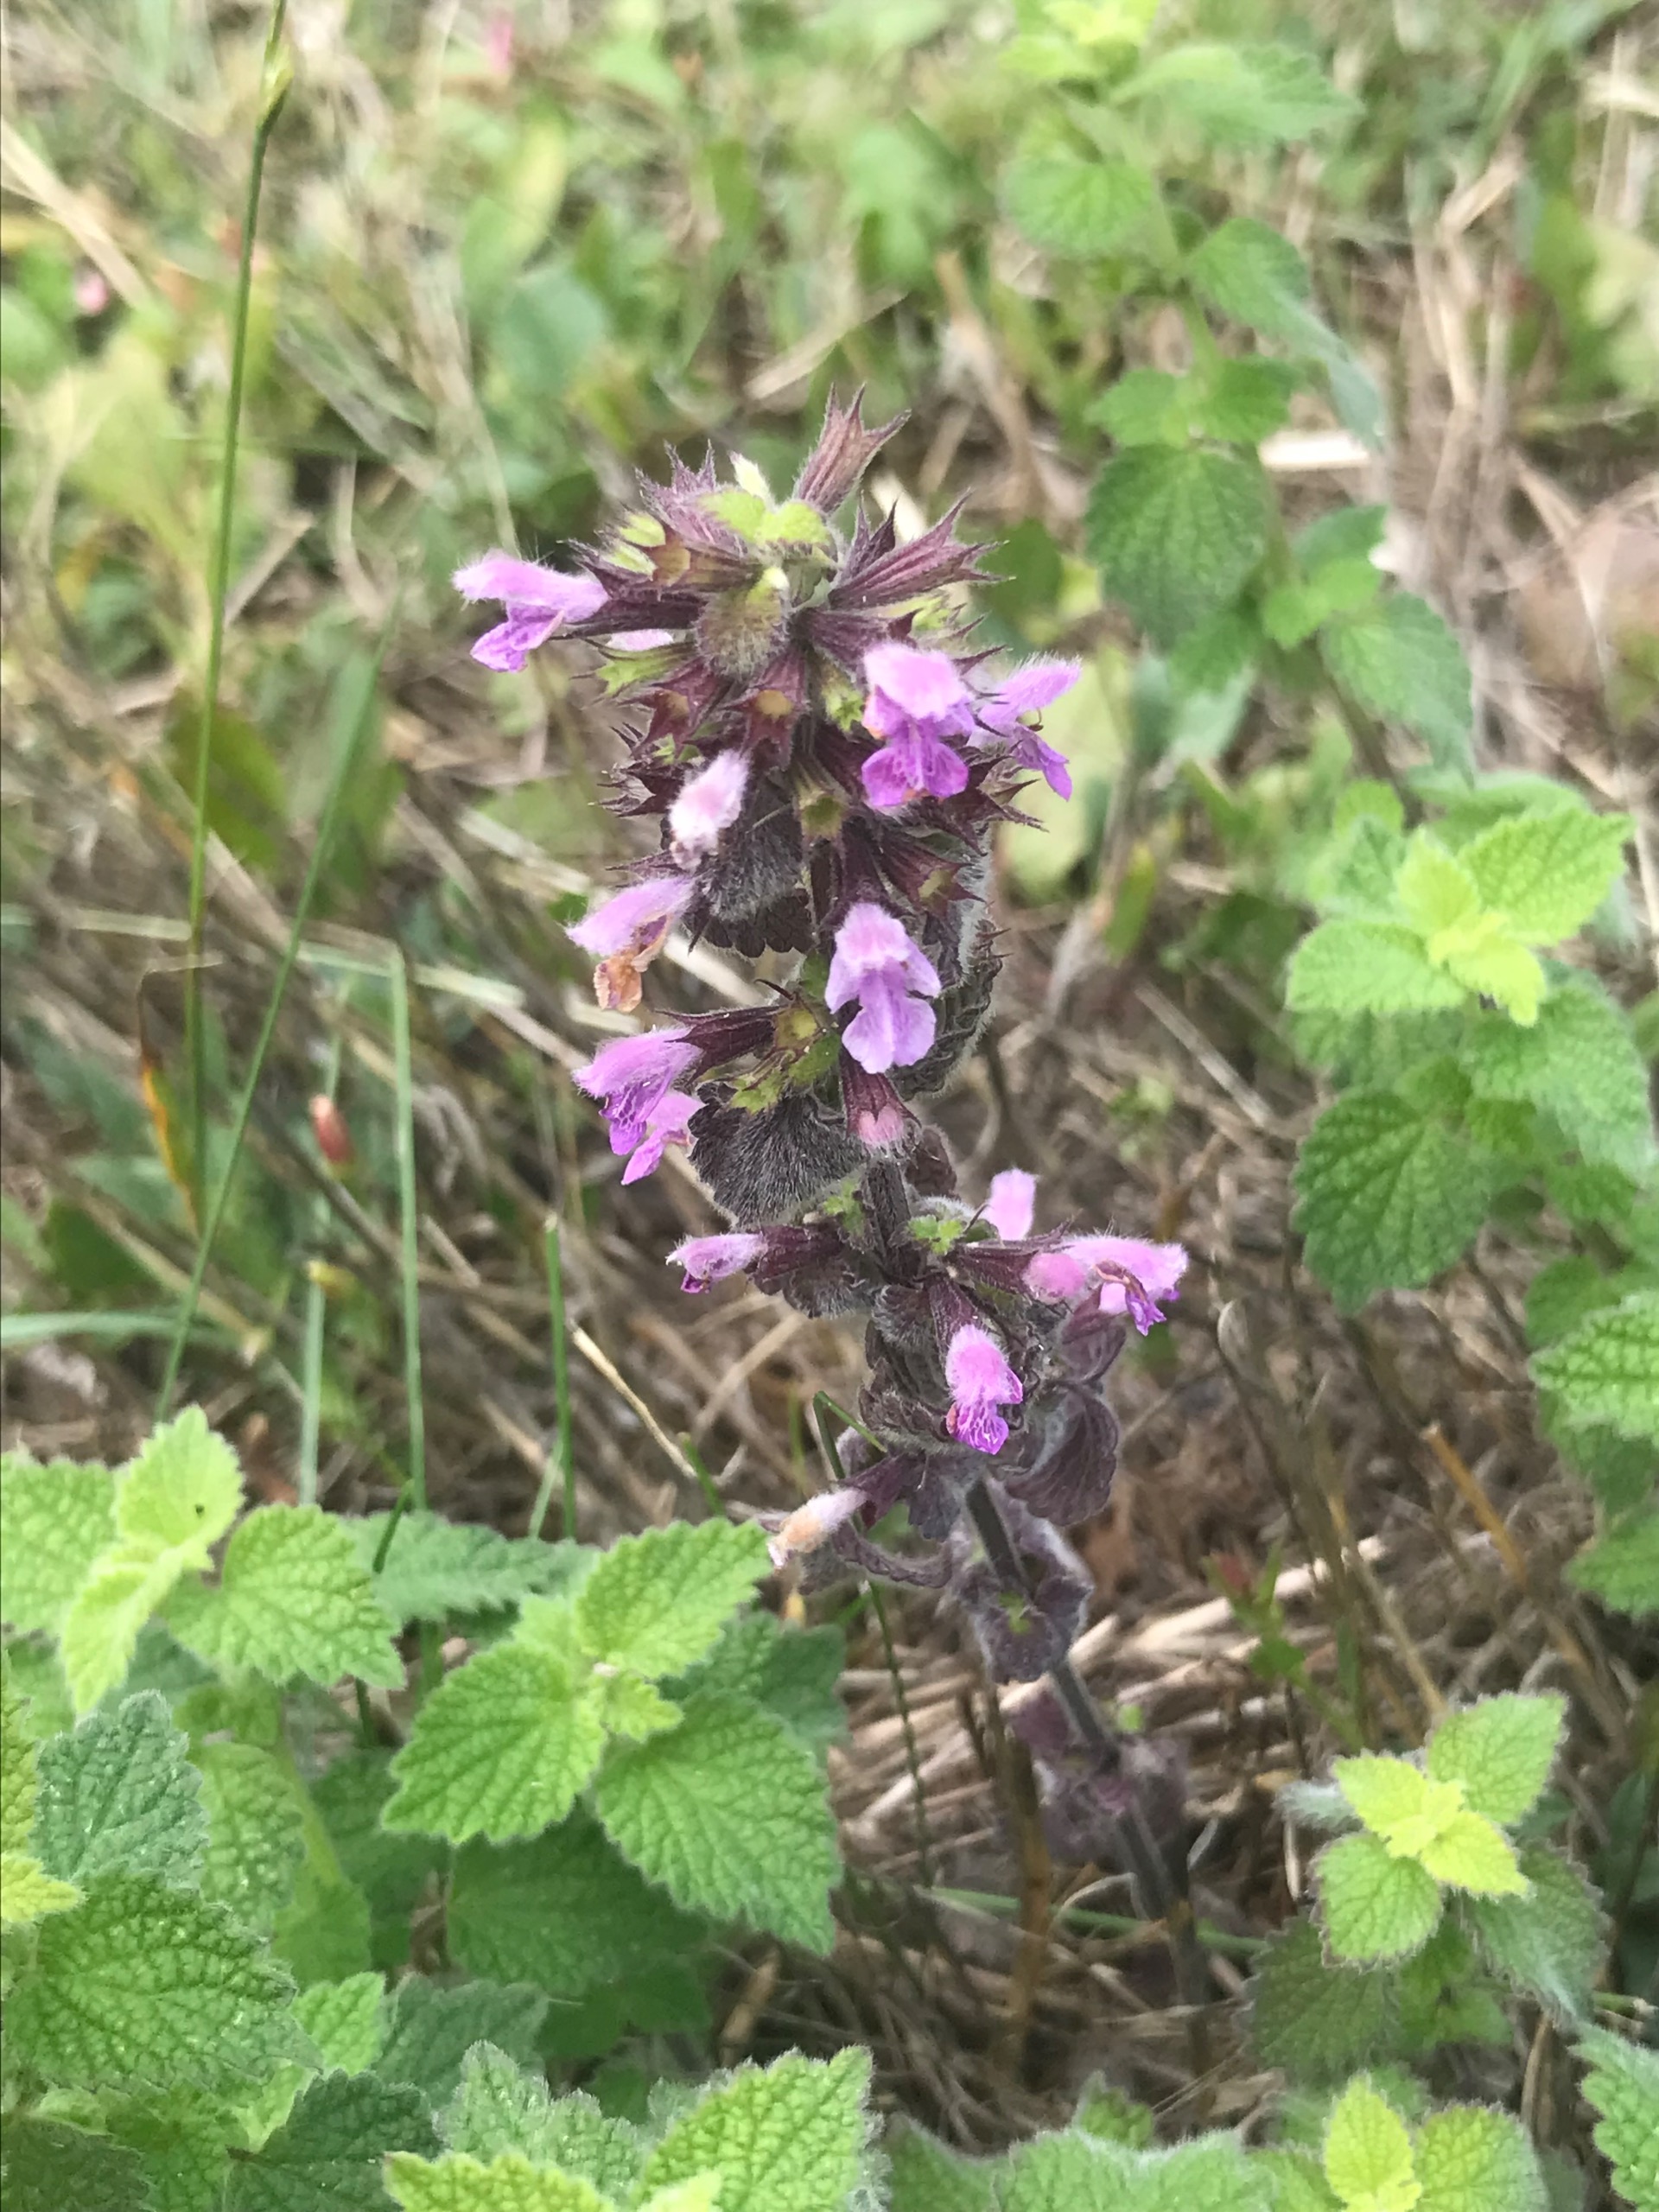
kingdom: Plantae
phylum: Tracheophyta
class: Magnoliopsida
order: Lamiales
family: Lamiaceae
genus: Ballota
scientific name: Ballota nigra
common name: Tandbæger
